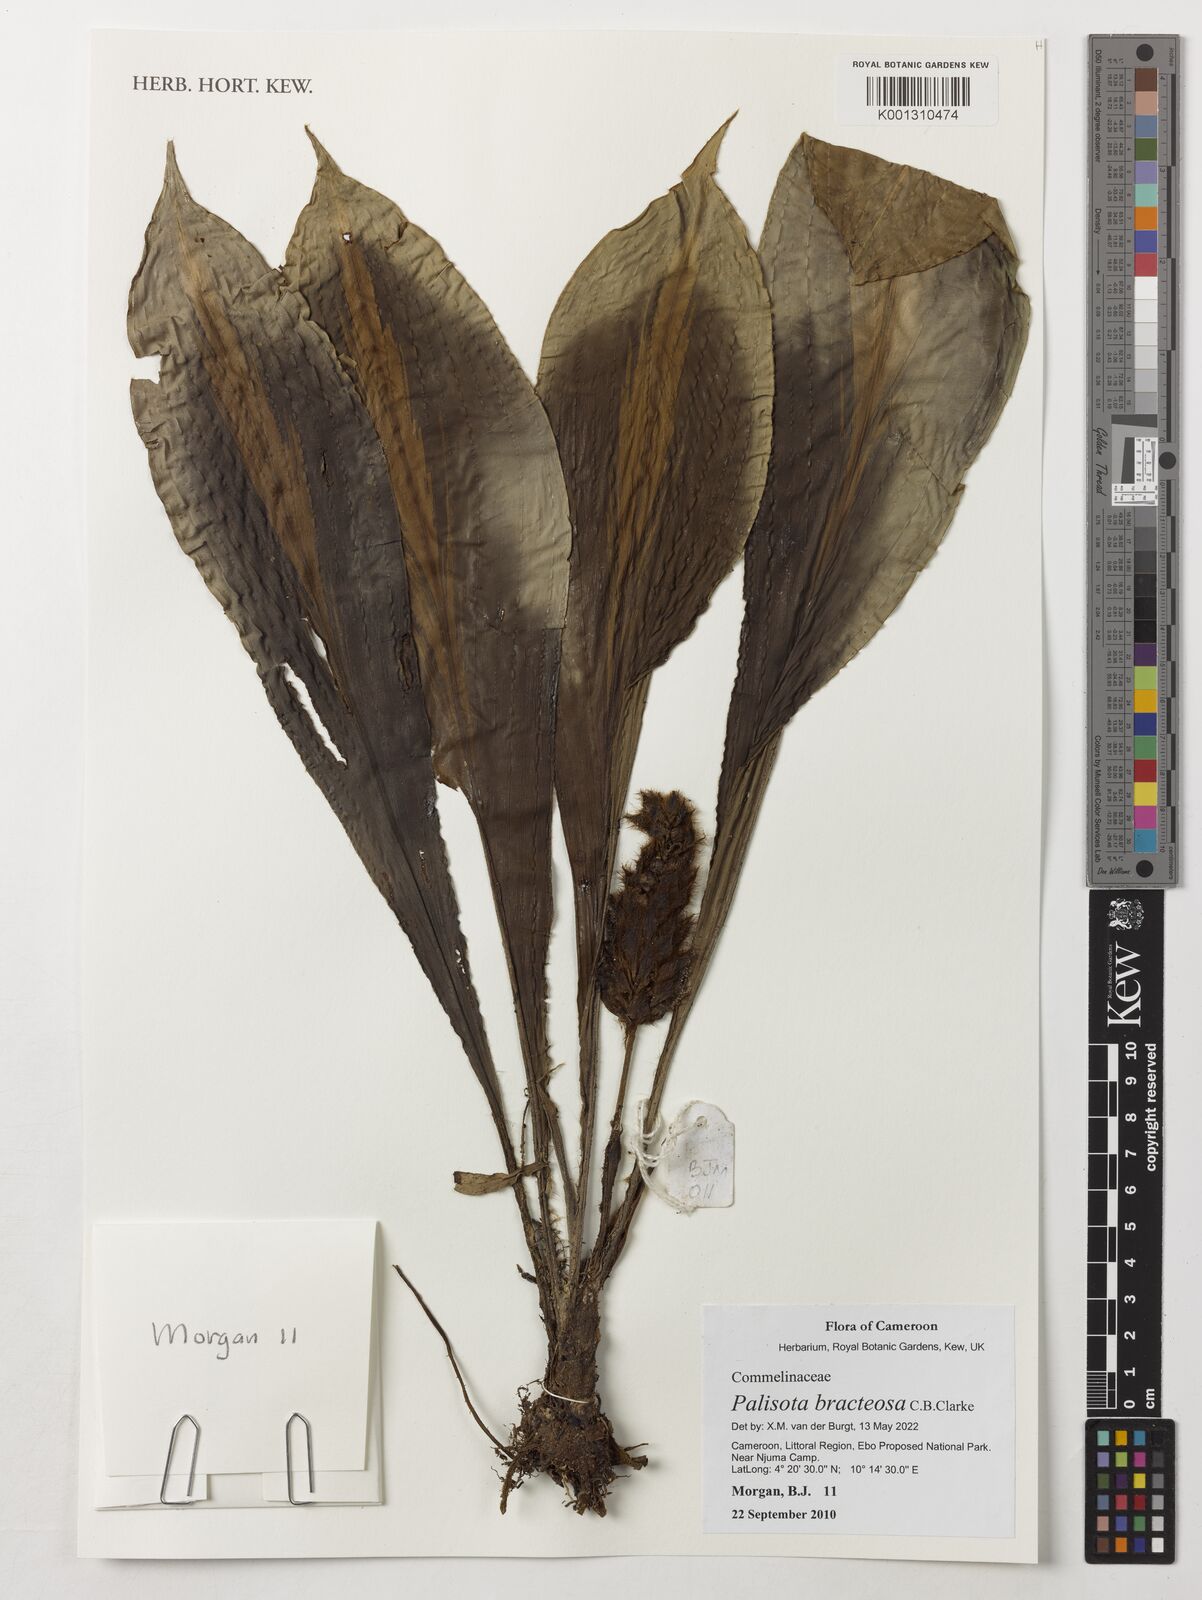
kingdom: Plantae
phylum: Tracheophyta
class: Liliopsida
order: Commelinales
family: Commelinaceae
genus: Palisota
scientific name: Palisota bracteosa
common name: Palisota
